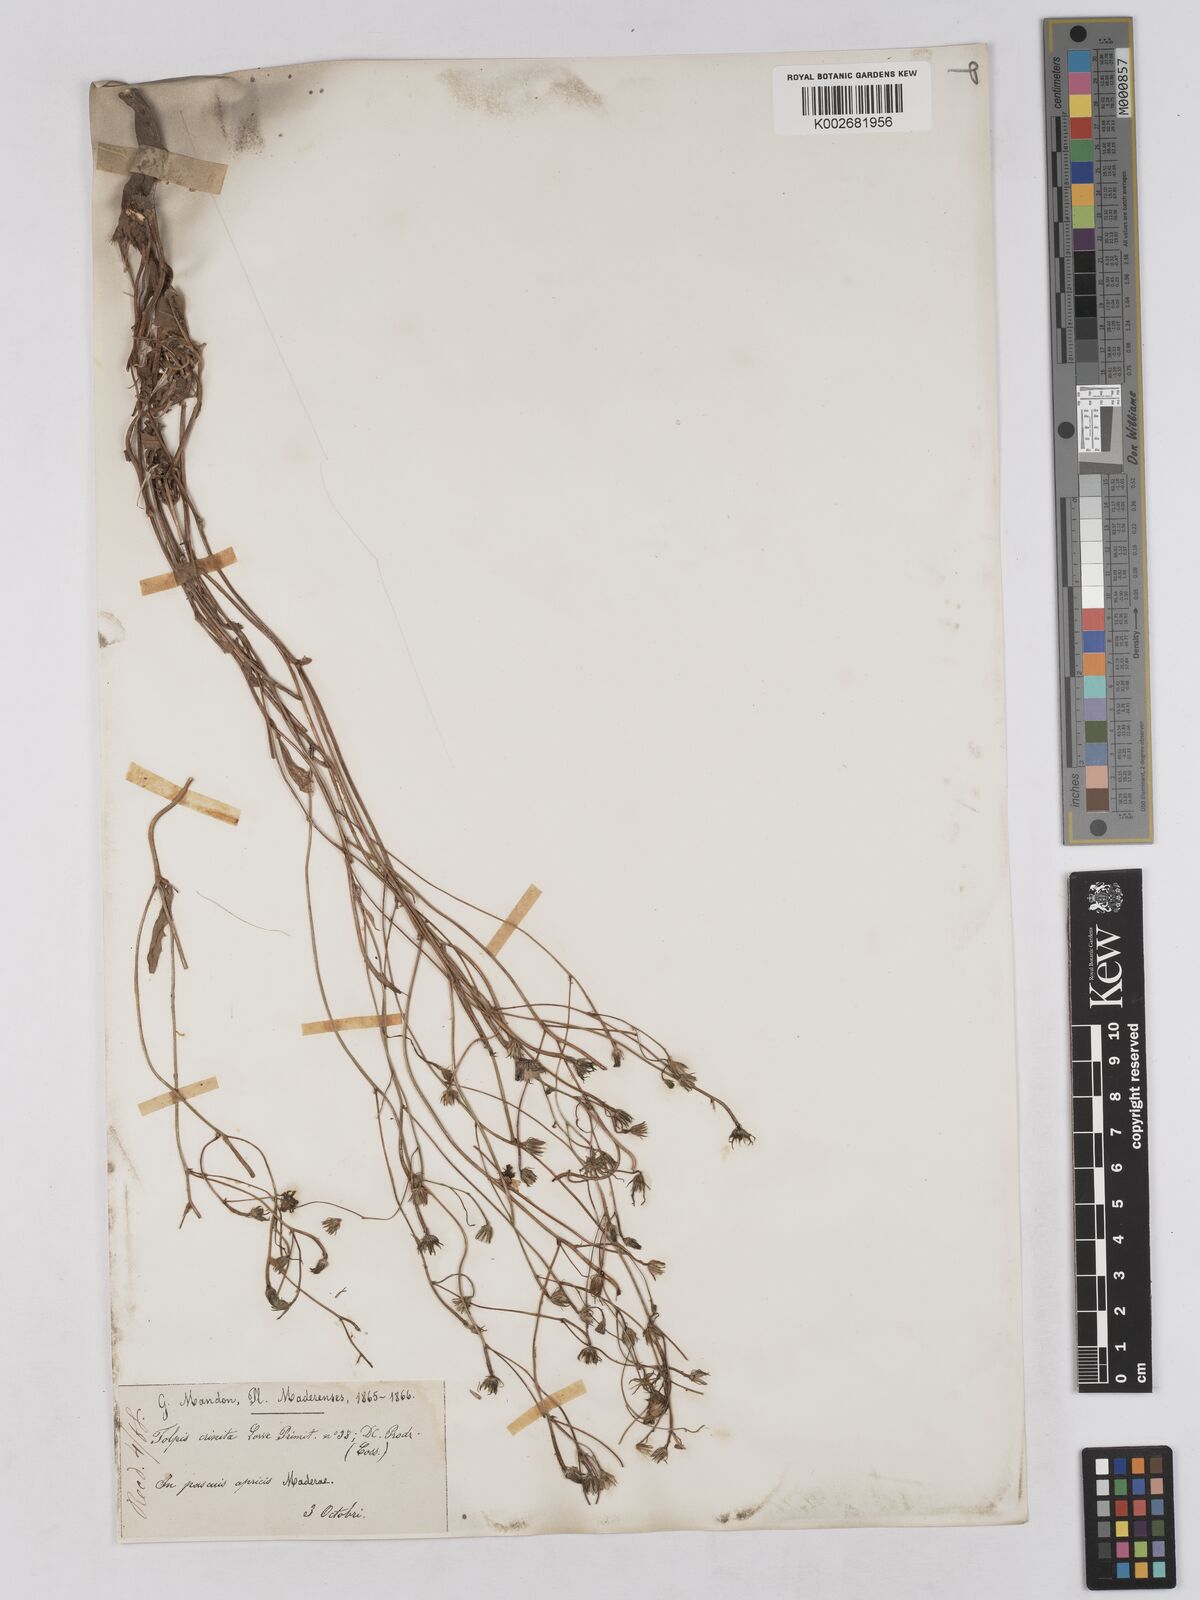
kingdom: Plantae
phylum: Tracheophyta
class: Magnoliopsida
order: Asterales
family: Asteraceae
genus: Tolpis
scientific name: Tolpis
